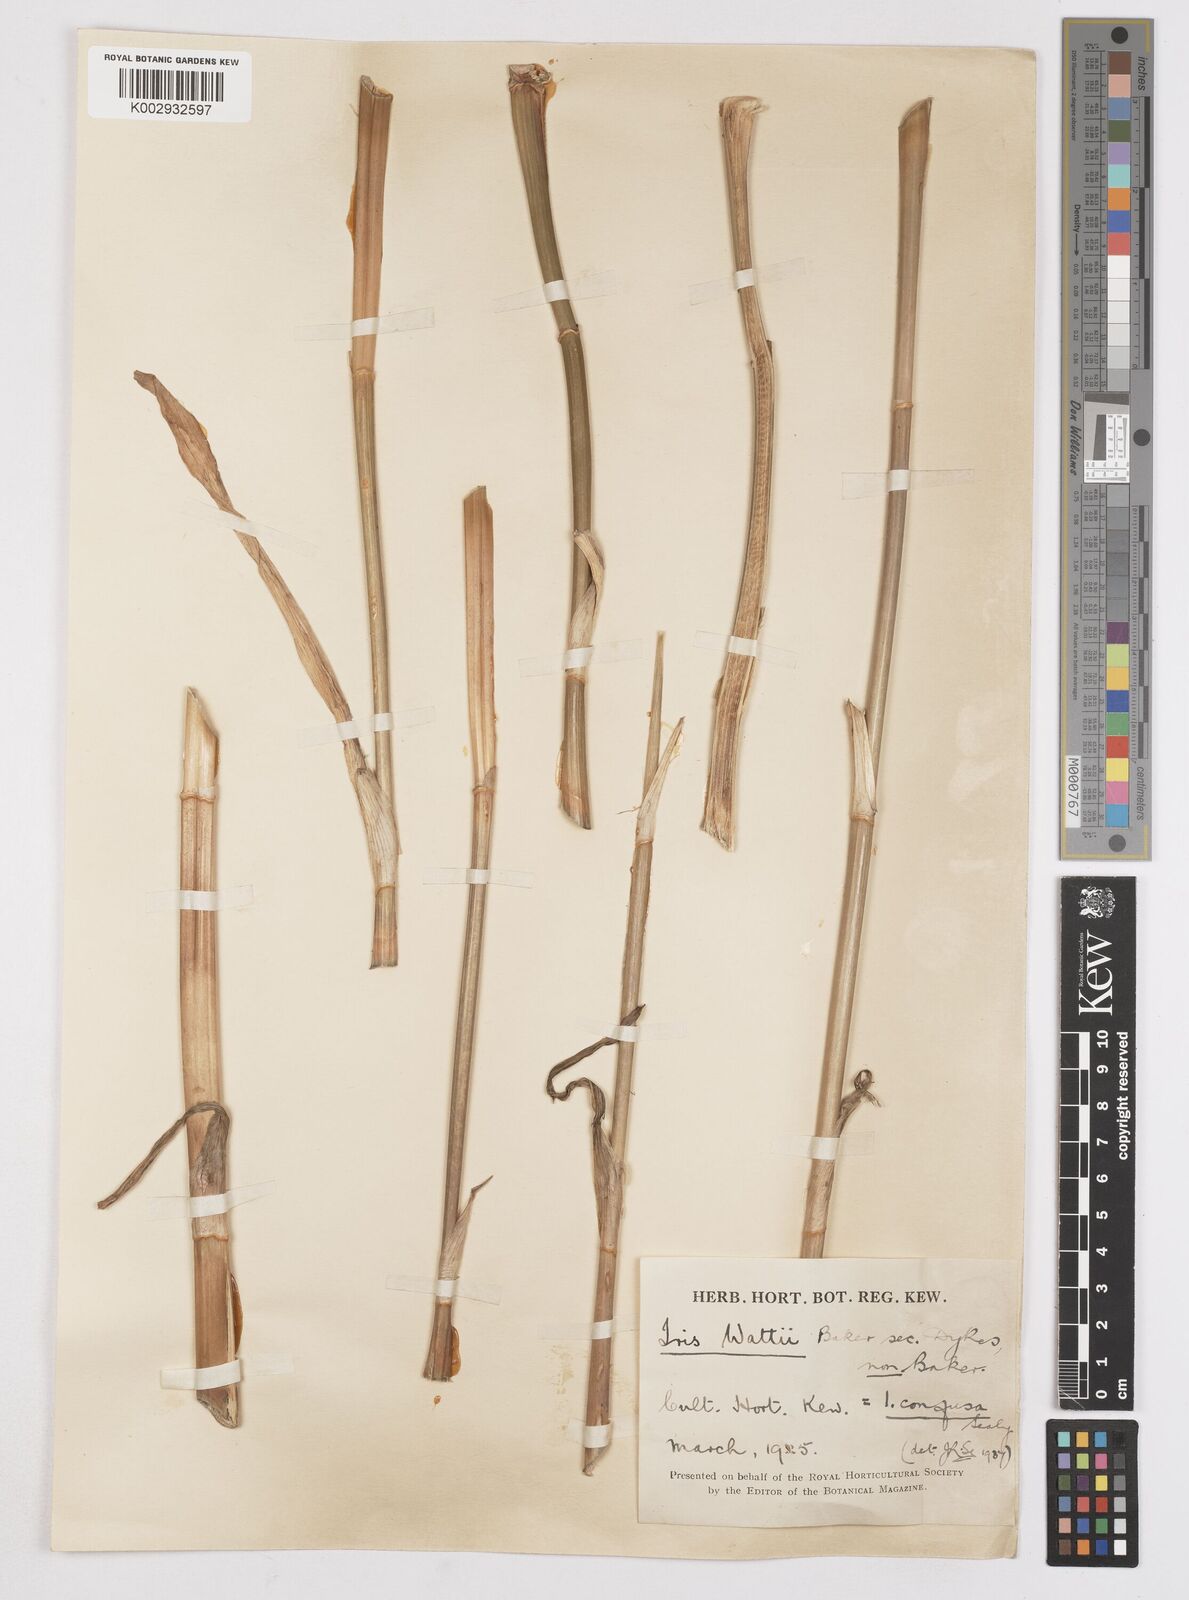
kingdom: Plantae
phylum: Tracheophyta
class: Liliopsida
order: Asparagales
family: Iridaceae
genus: Iris
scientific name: Iris wattii
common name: Fan-shape iris
